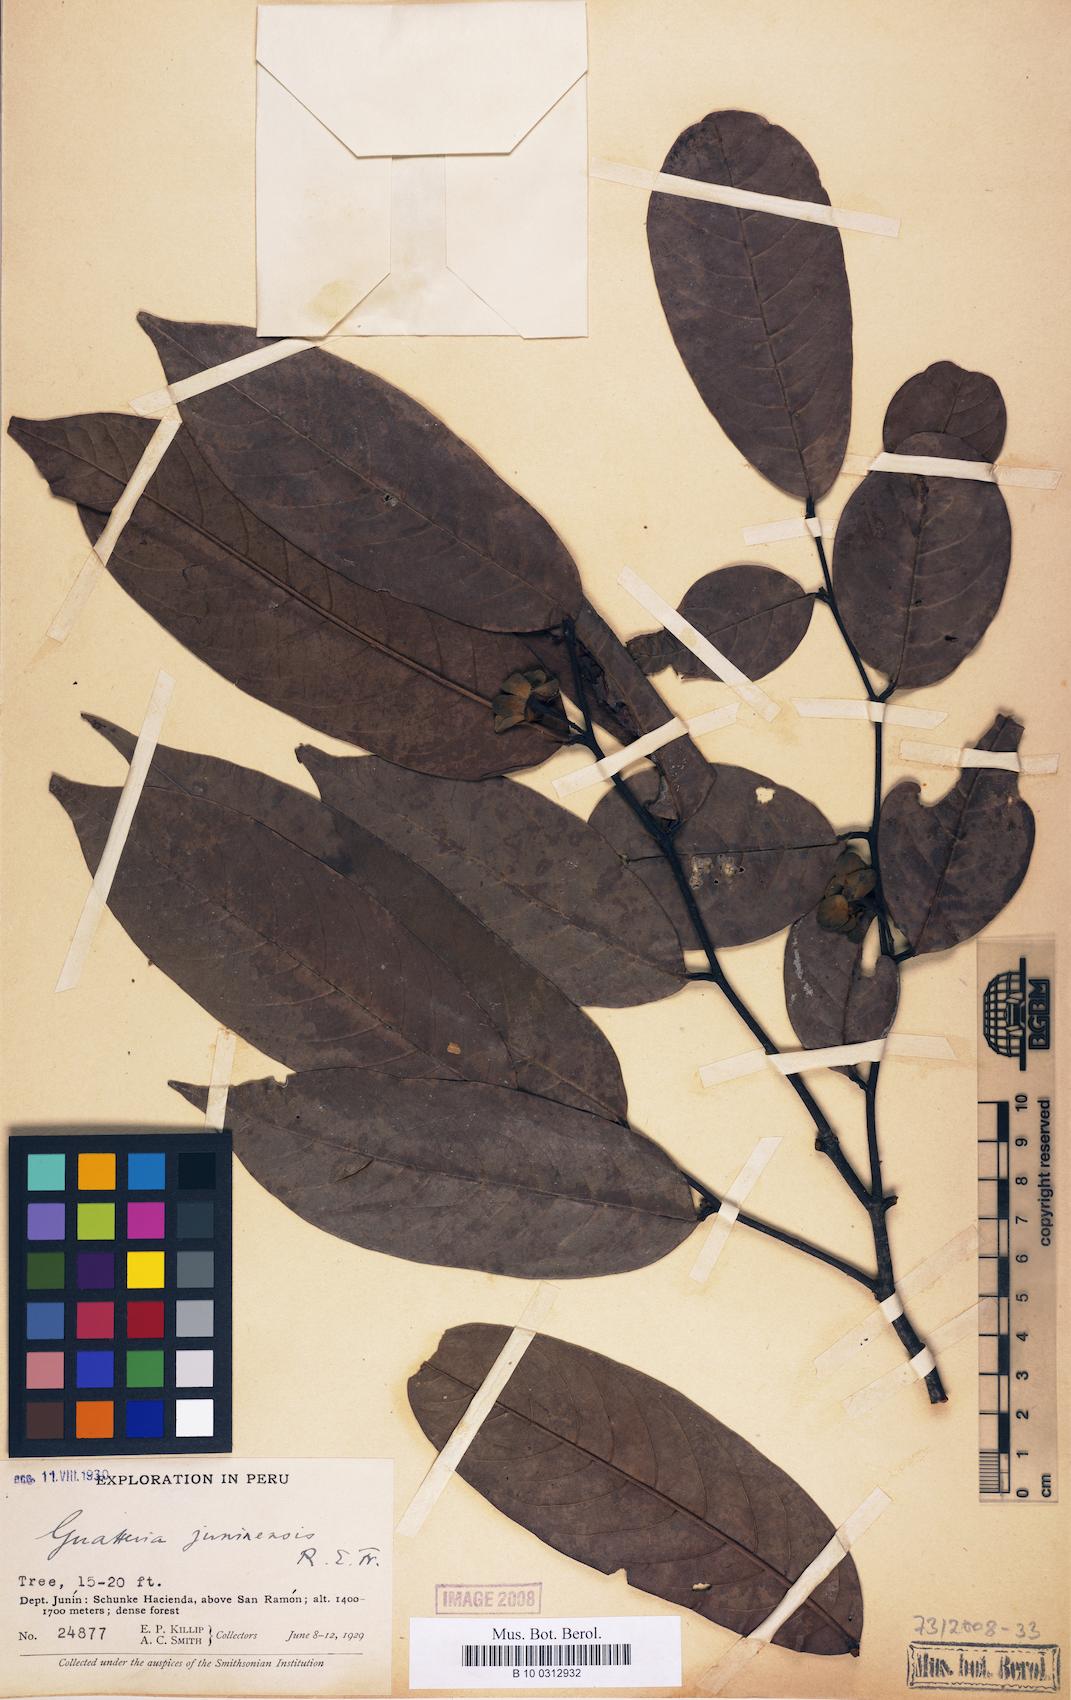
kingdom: Plantae
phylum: Tracheophyta
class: Magnoliopsida
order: Magnoliales
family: Annonaceae
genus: Guatteria
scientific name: Guatteria punctata
